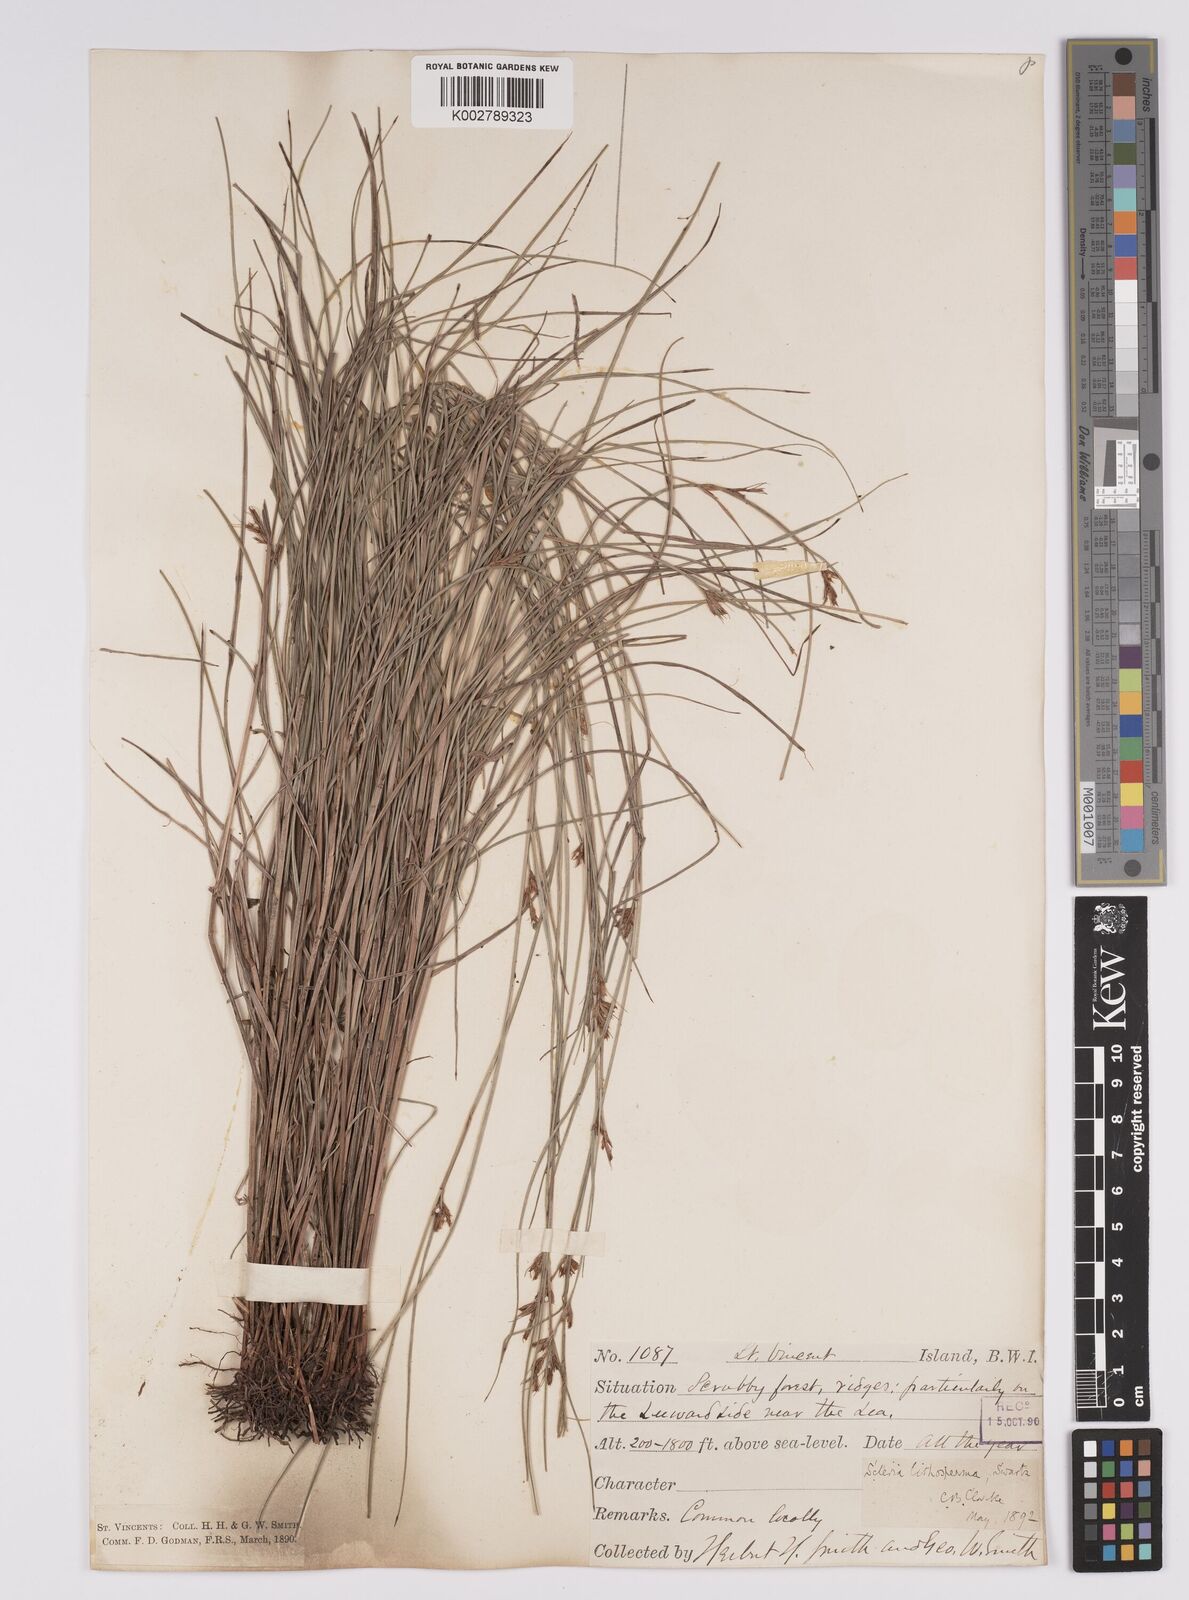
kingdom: Plantae
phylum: Tracheophyta
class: Liliopsida
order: Poales
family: Cyperaceae
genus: Scleria
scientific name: Scleria lithosperma
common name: Florida keys nut-rush
